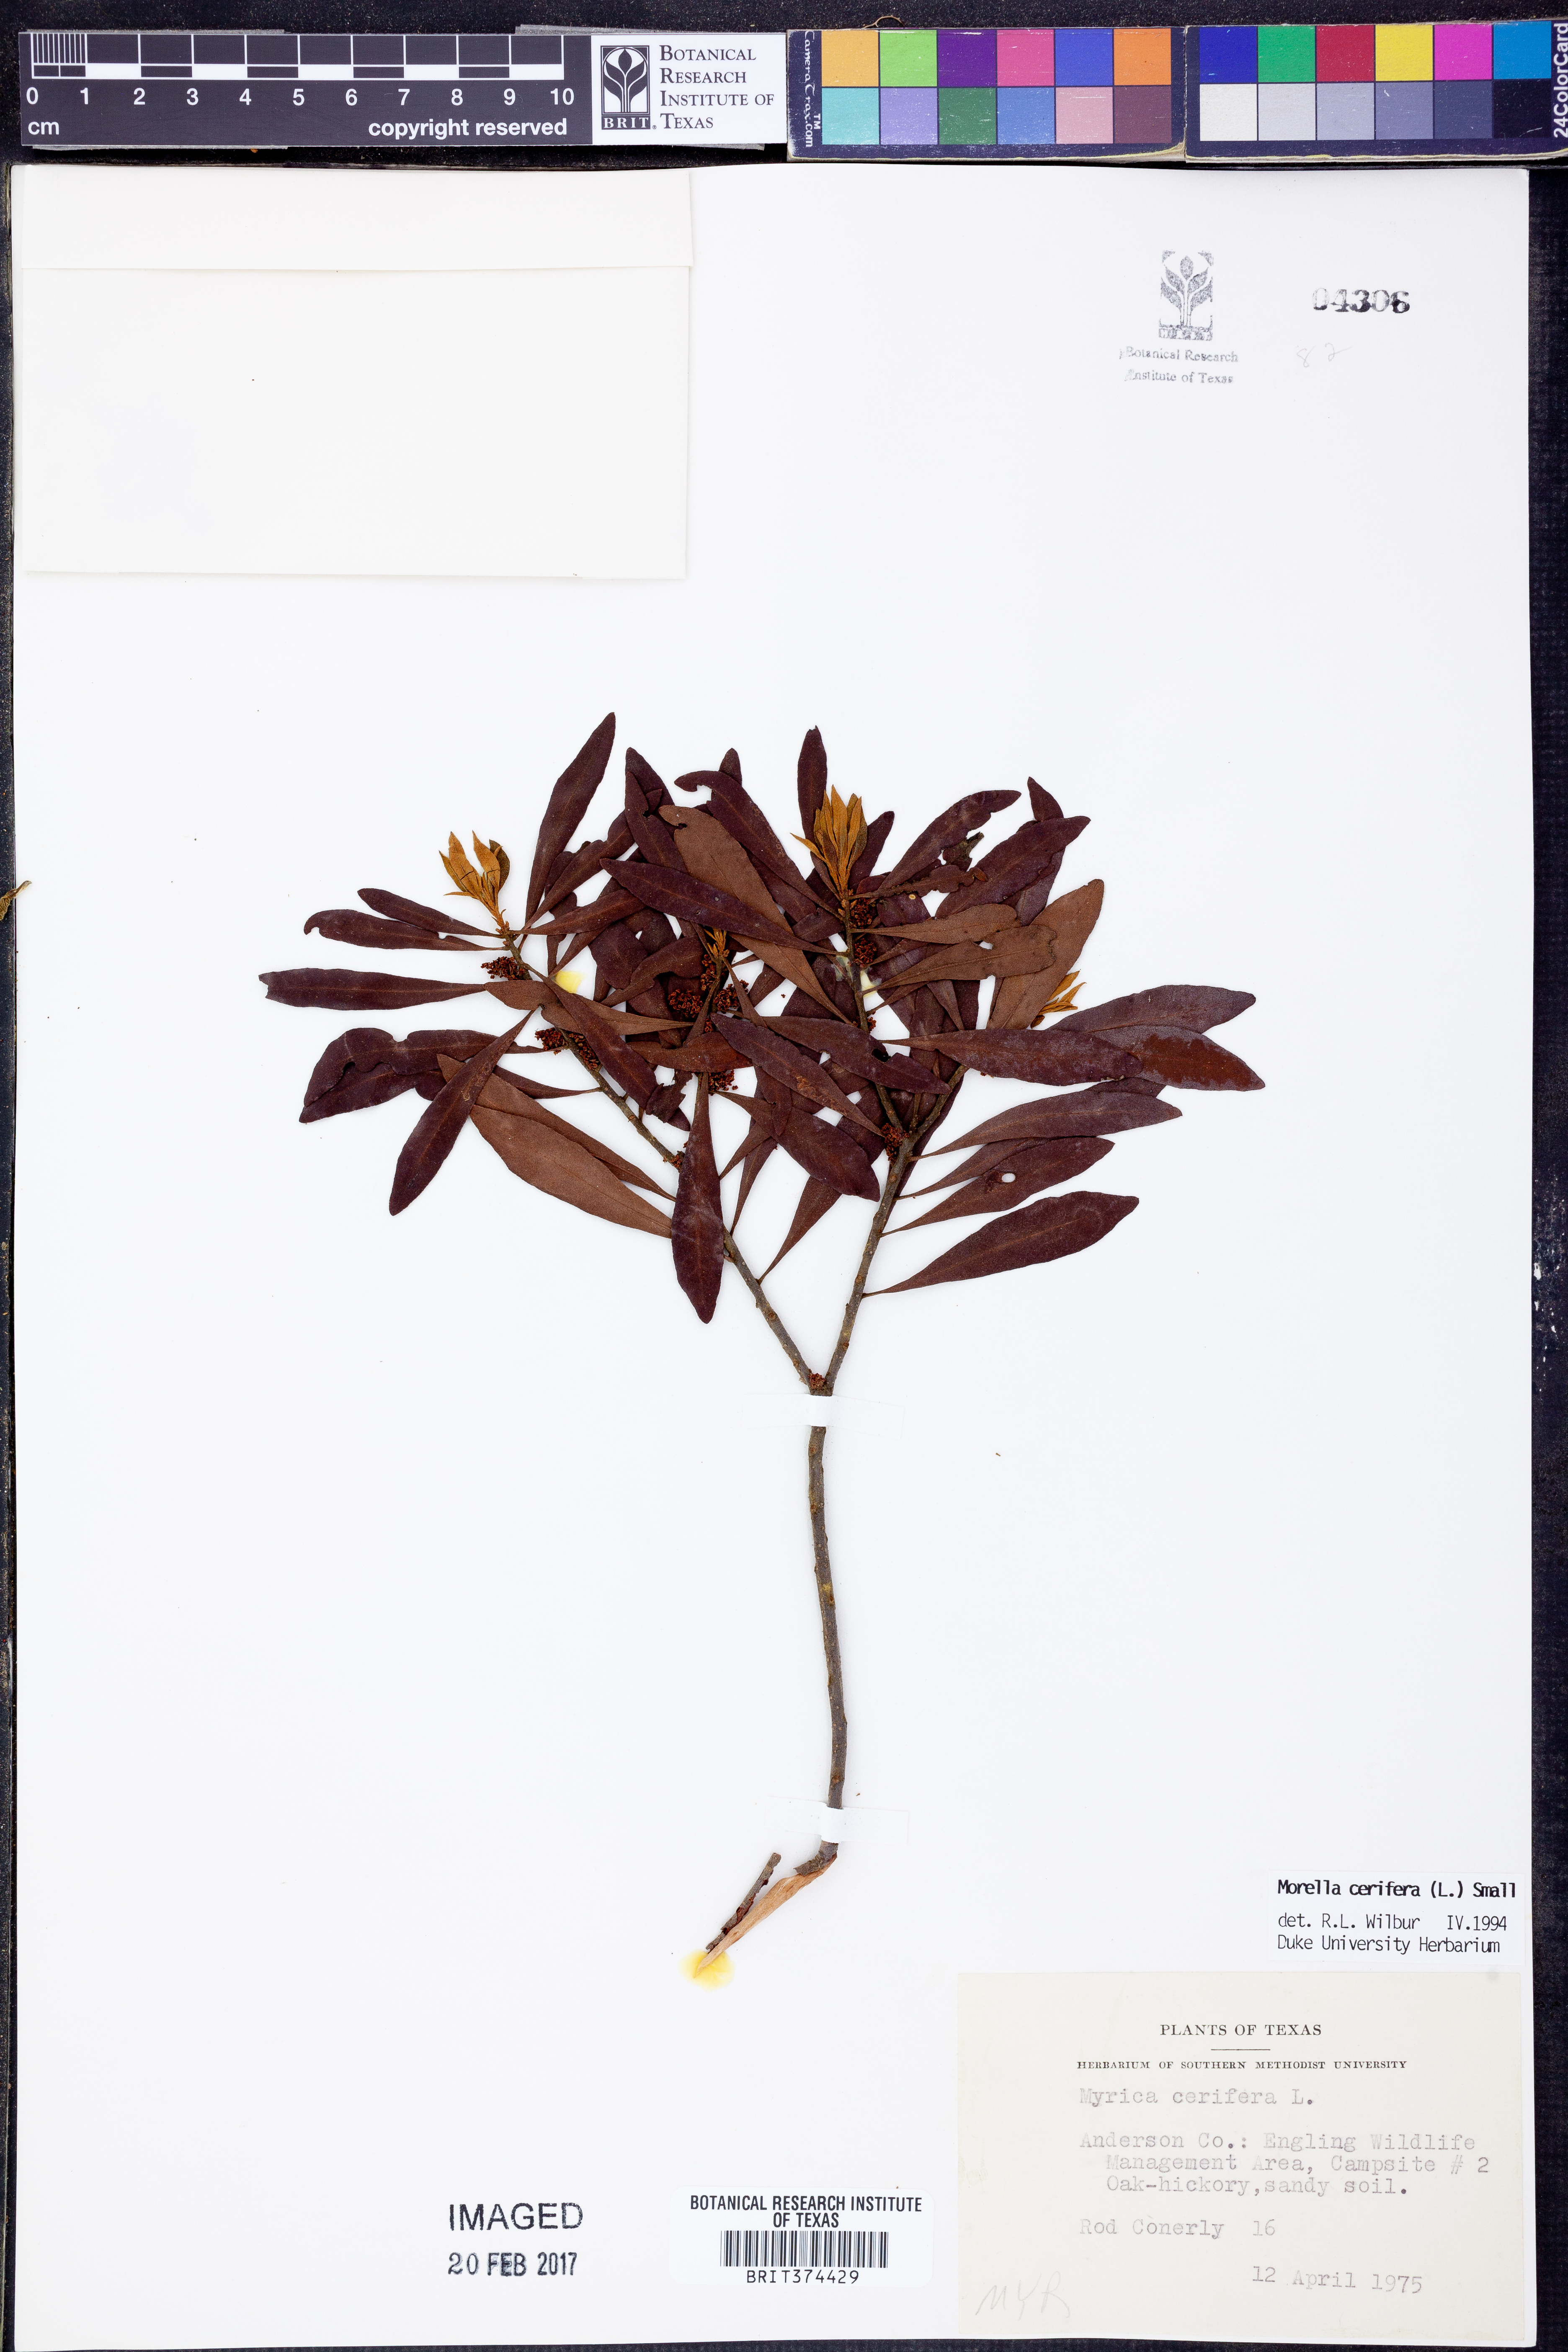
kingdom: Plantae
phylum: Tracheophyta
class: Magnoliopsida
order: Fagales
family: Myricaceae
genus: Morella
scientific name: Morella cerifera
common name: Wax myrtle
